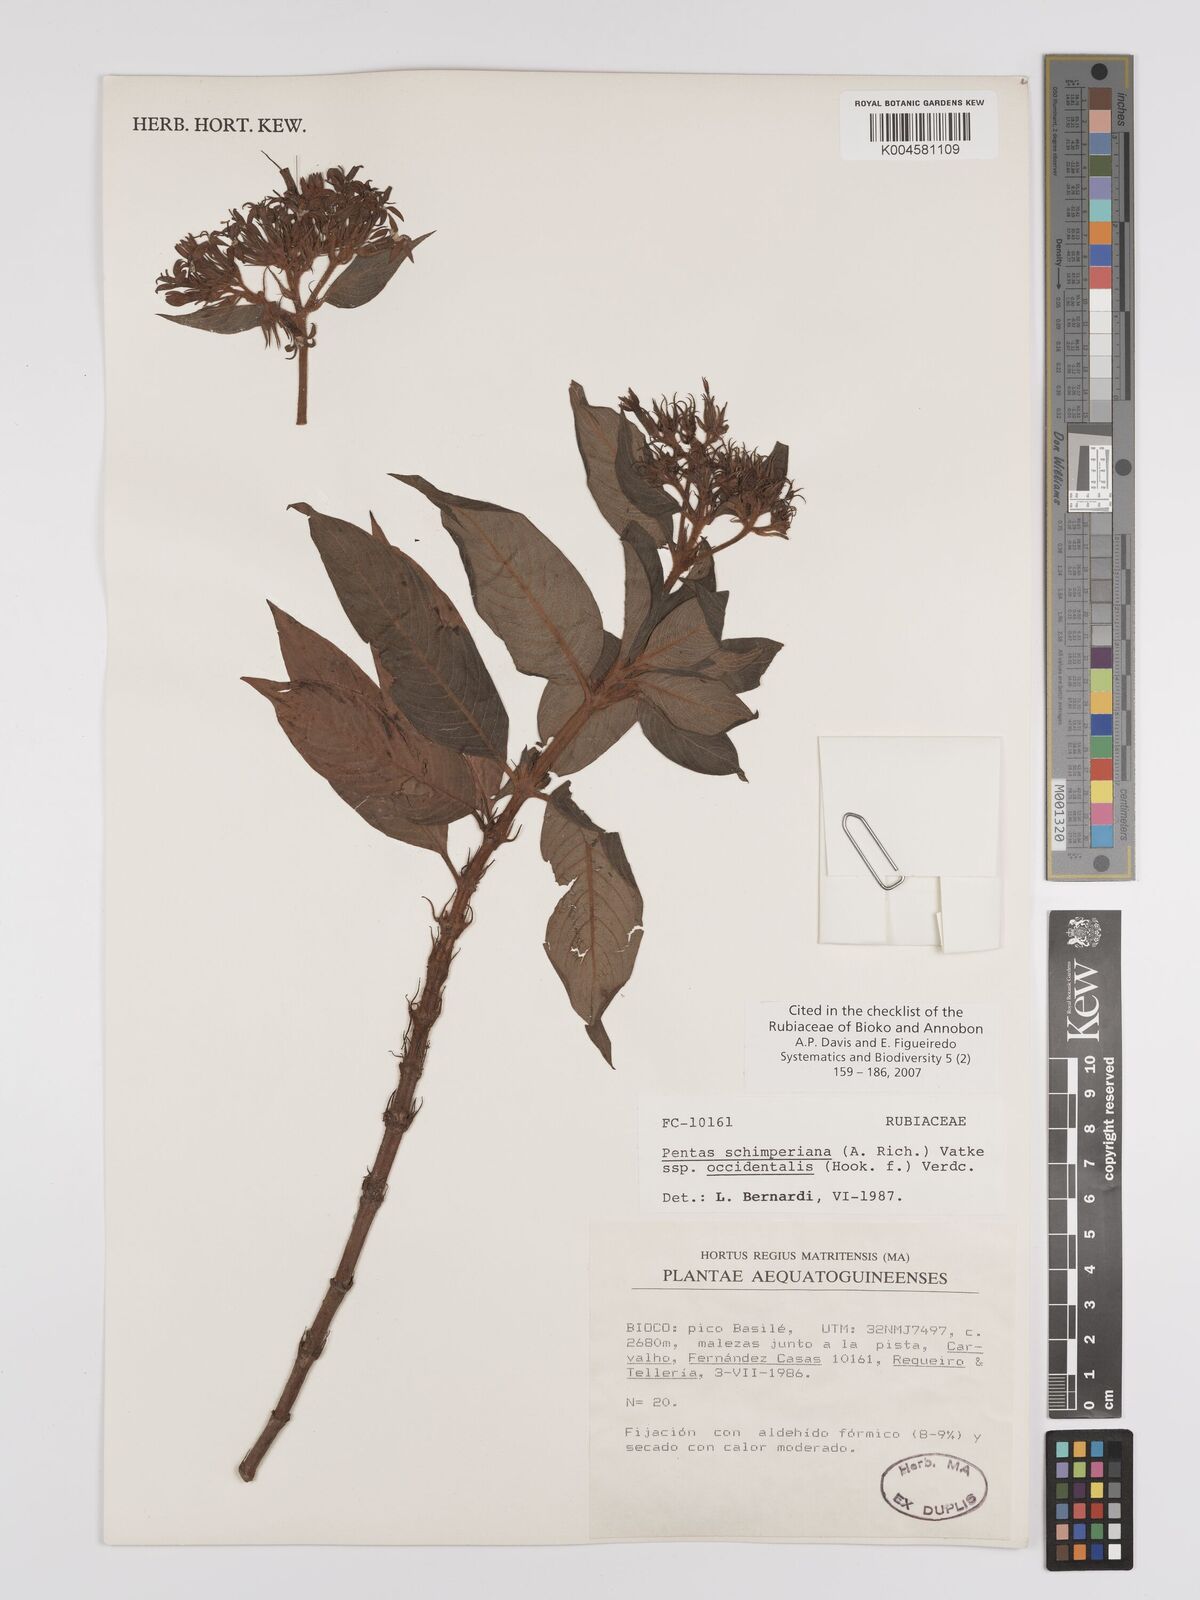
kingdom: Plantae
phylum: Tracheophyta
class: Magnoliopsida
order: Gentianales
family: Rubiaceae
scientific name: Rubiaceae
